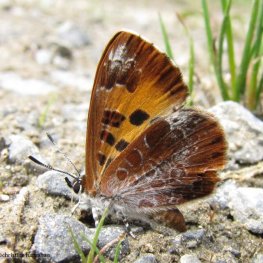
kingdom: Animalia
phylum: Arthropoda
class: Insecta
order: Lepidoptera
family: Lycaenidae
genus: Feniseca
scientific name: Feniseca tarquinius
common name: Harvester
